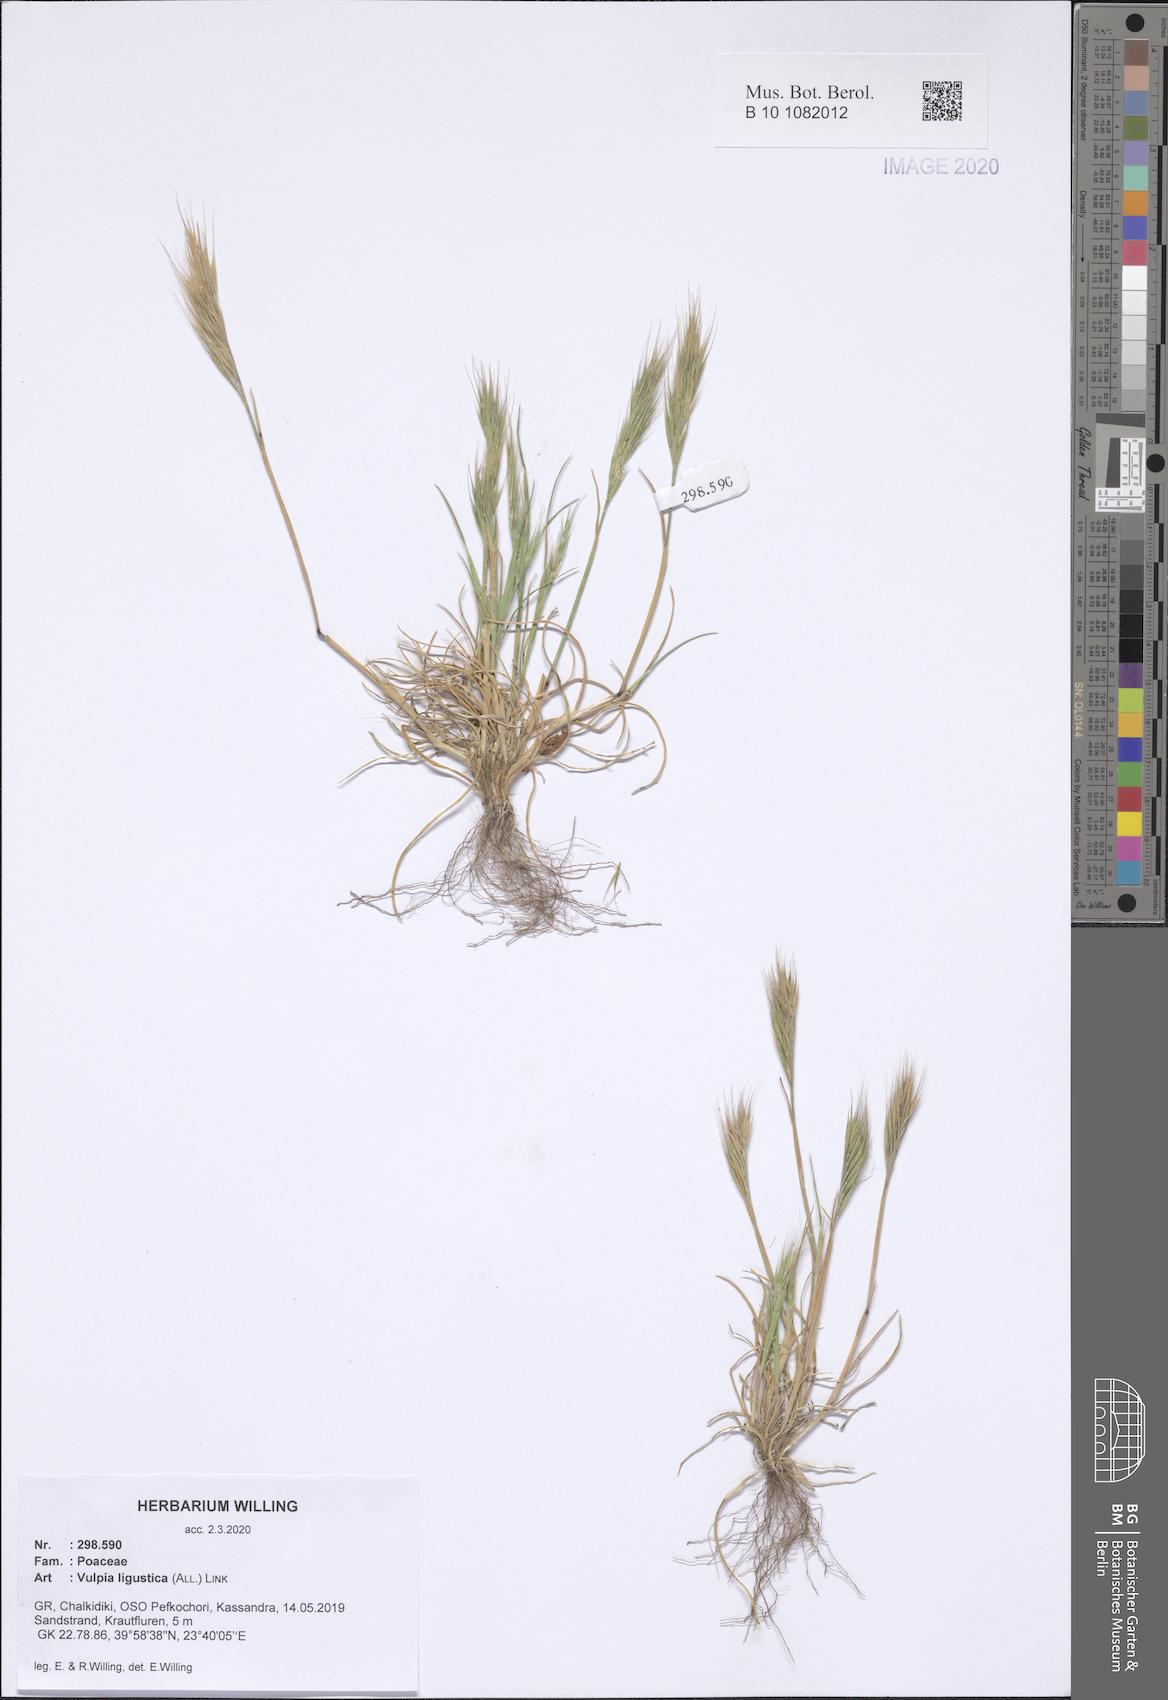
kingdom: Plantae
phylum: Tracheophyta
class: Liliopsida
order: Poales
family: Poaceae
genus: Festuca
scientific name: Festuca ligustica
